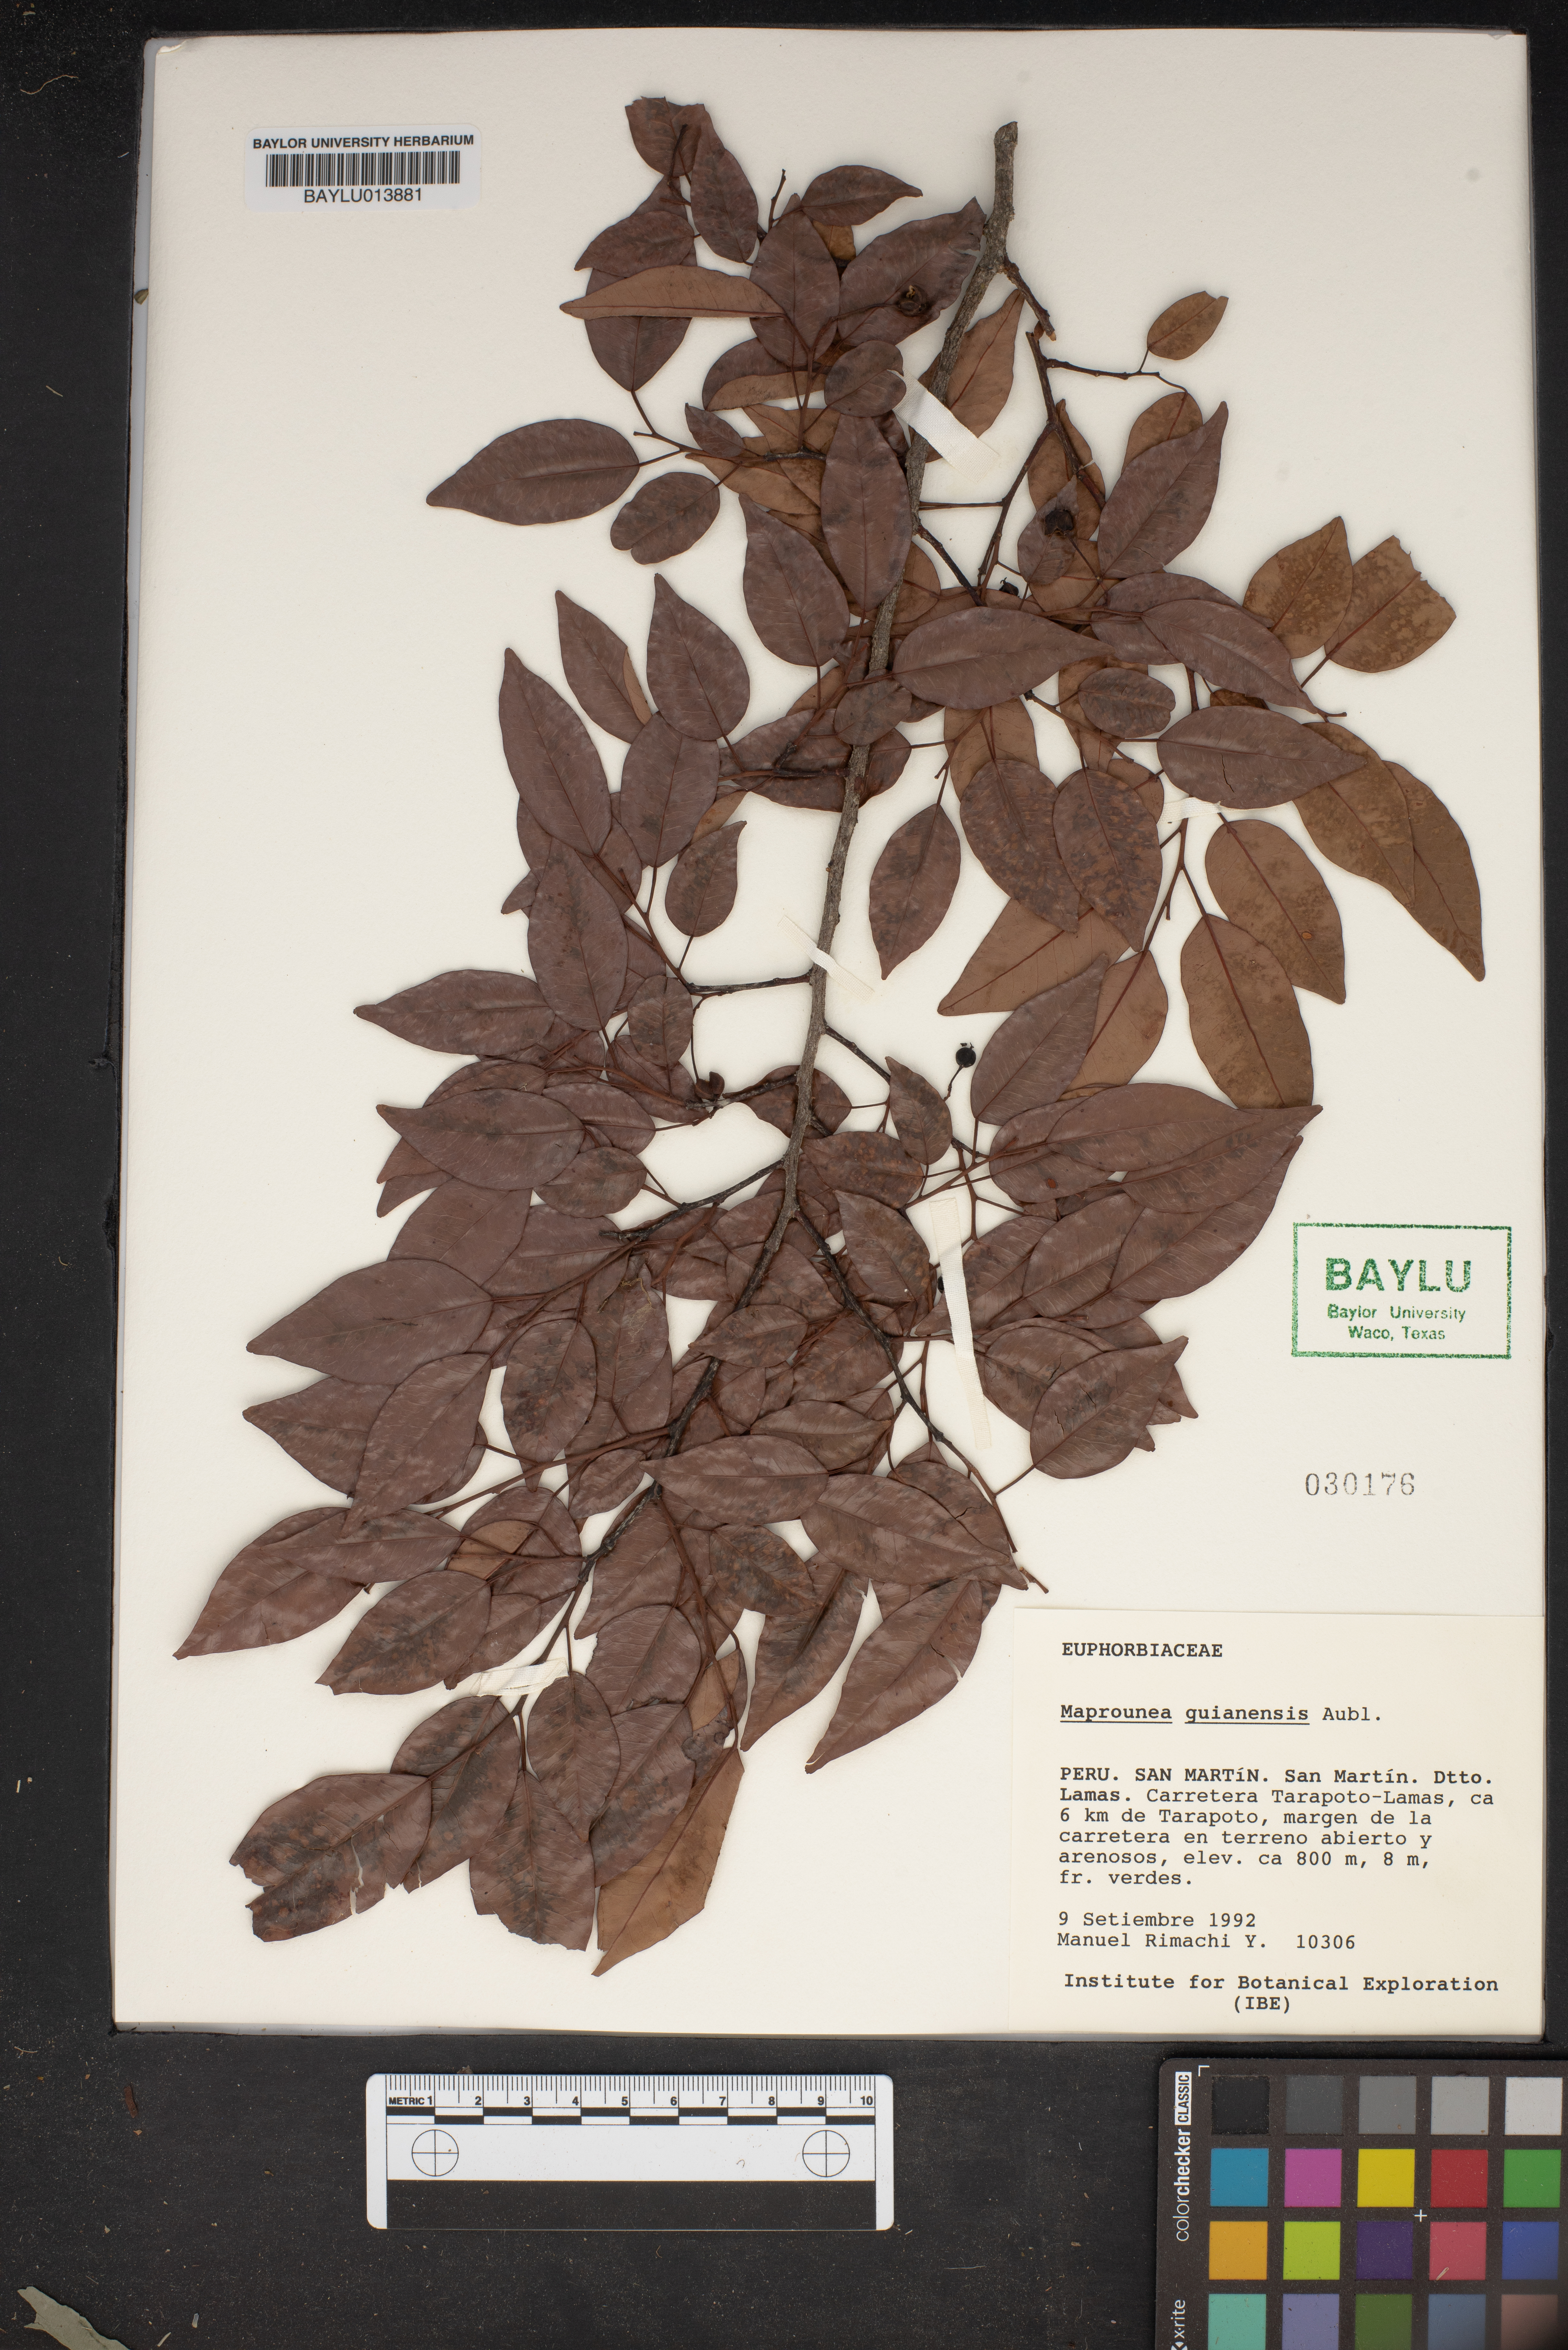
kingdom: Plantae
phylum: Tracheophyta
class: Magnoliopsida
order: Malpighiales
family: Euphorbiaceae
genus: Maprounea
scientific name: Maprounea guianensis
